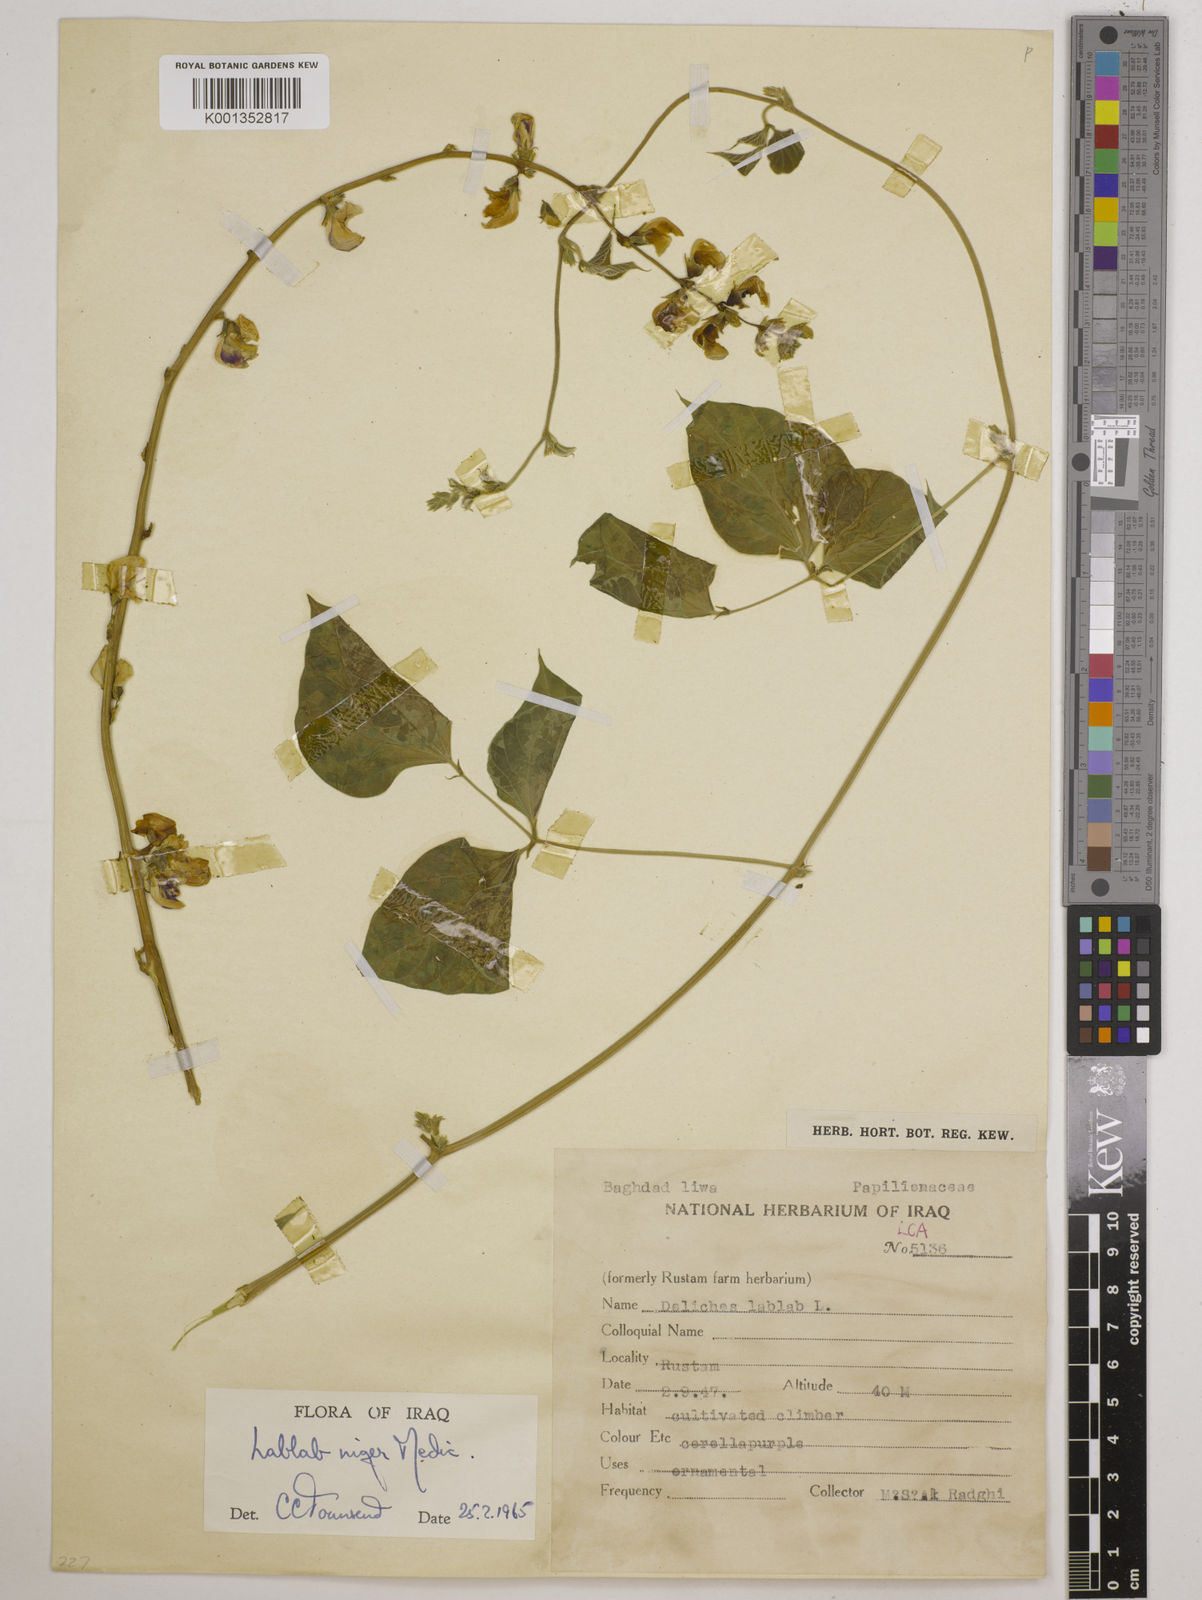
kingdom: Plantae
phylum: Tracheophyta
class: Magnoliopsida
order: Fabales
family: Fabaceae
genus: Lablab
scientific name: Lablab purpureus
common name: Lablab-bean
